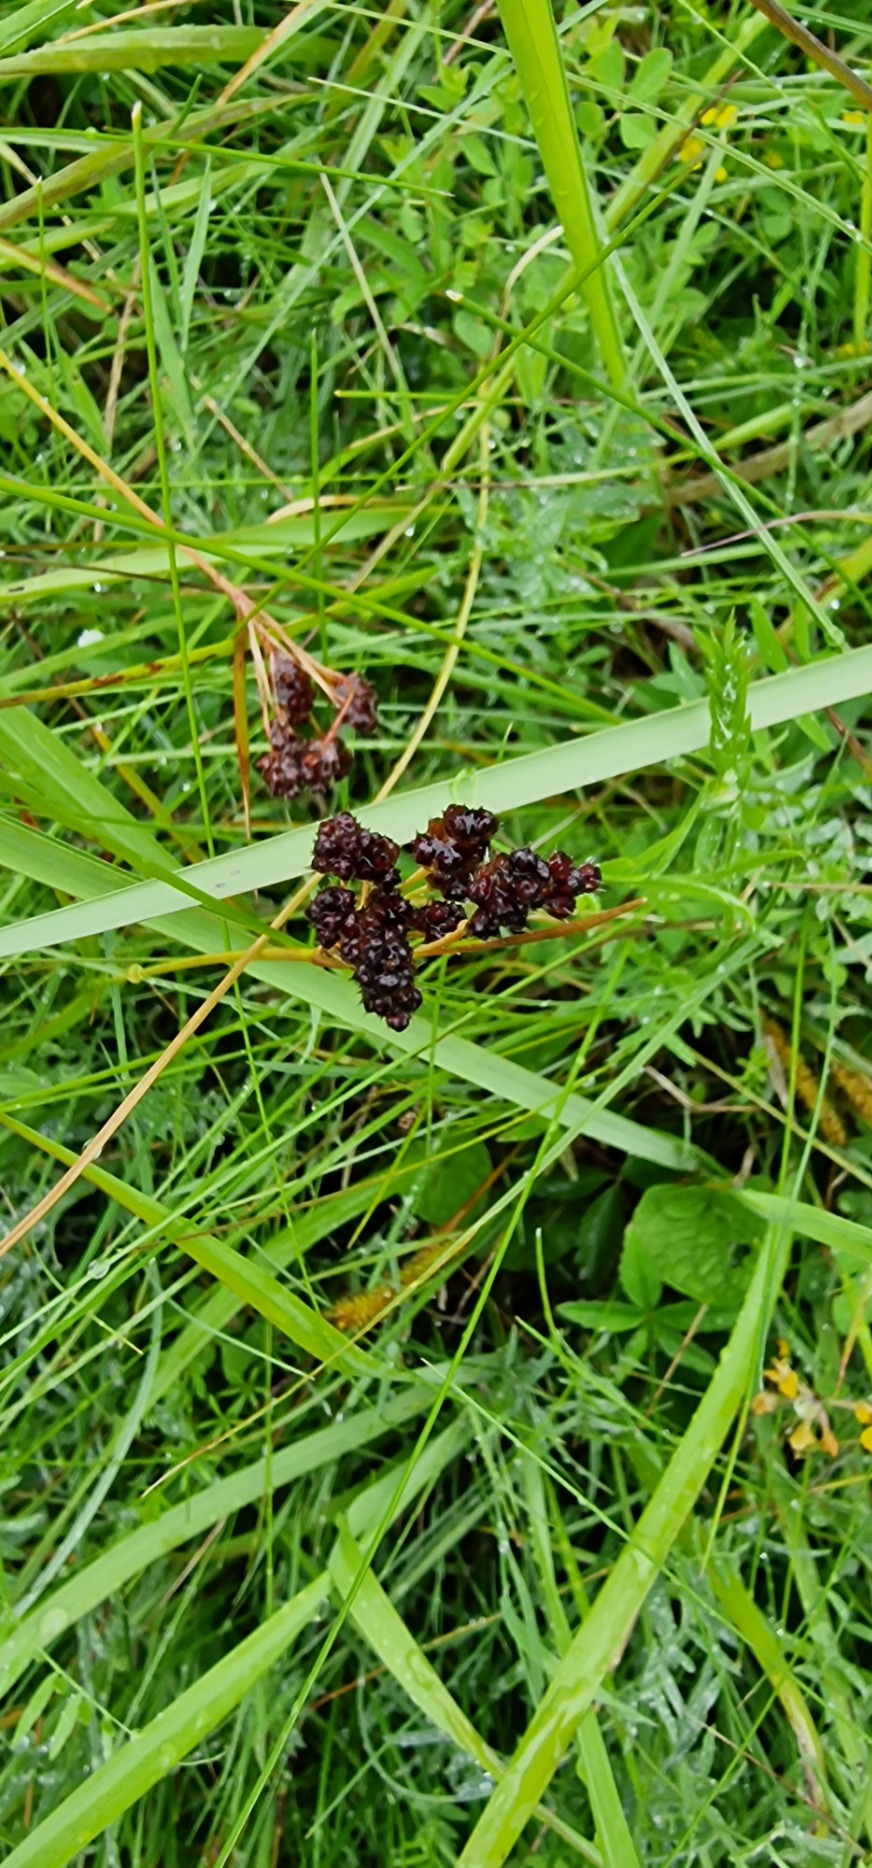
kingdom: Plantae
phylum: Tracheophyta
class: Liliopsida
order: Poales
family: Juncaceae
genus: Luzula
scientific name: Luzula multiflora
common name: Mangeblomstret frytle
